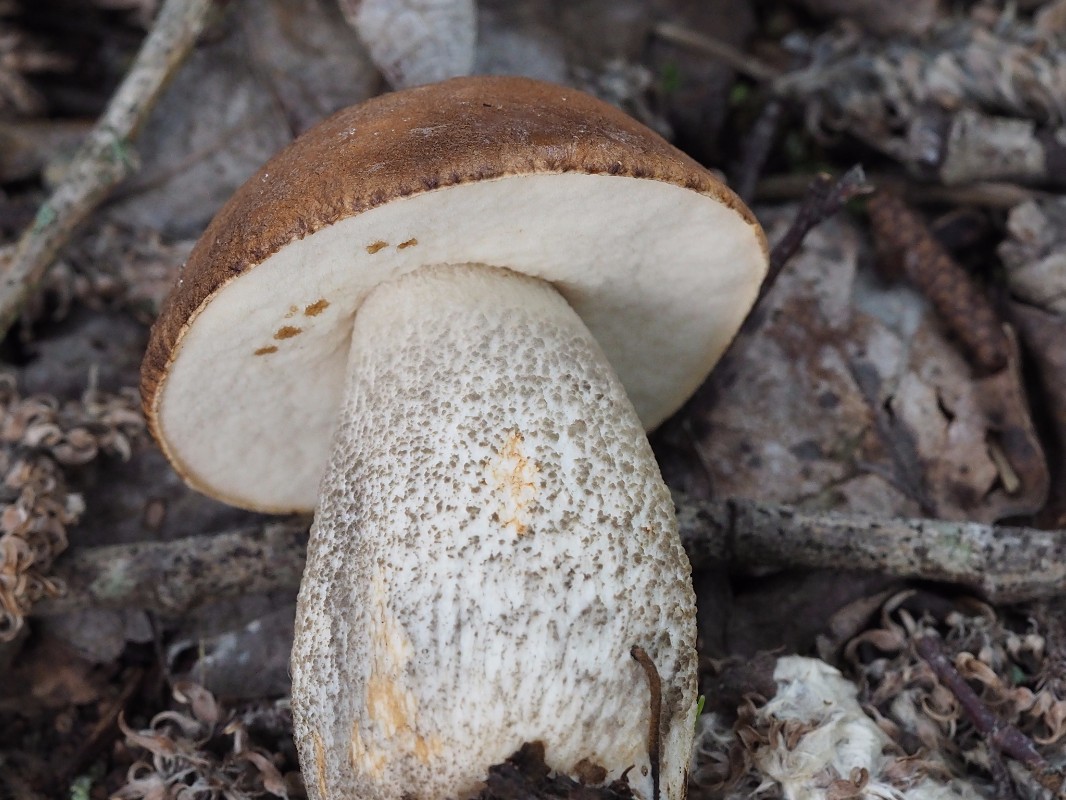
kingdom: Fungi
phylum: Basidiomycota
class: Agaricomycetes
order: Boletales
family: Boletaceae
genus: Leccinum
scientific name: Leccinum versipelle
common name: orange skælrørhat
